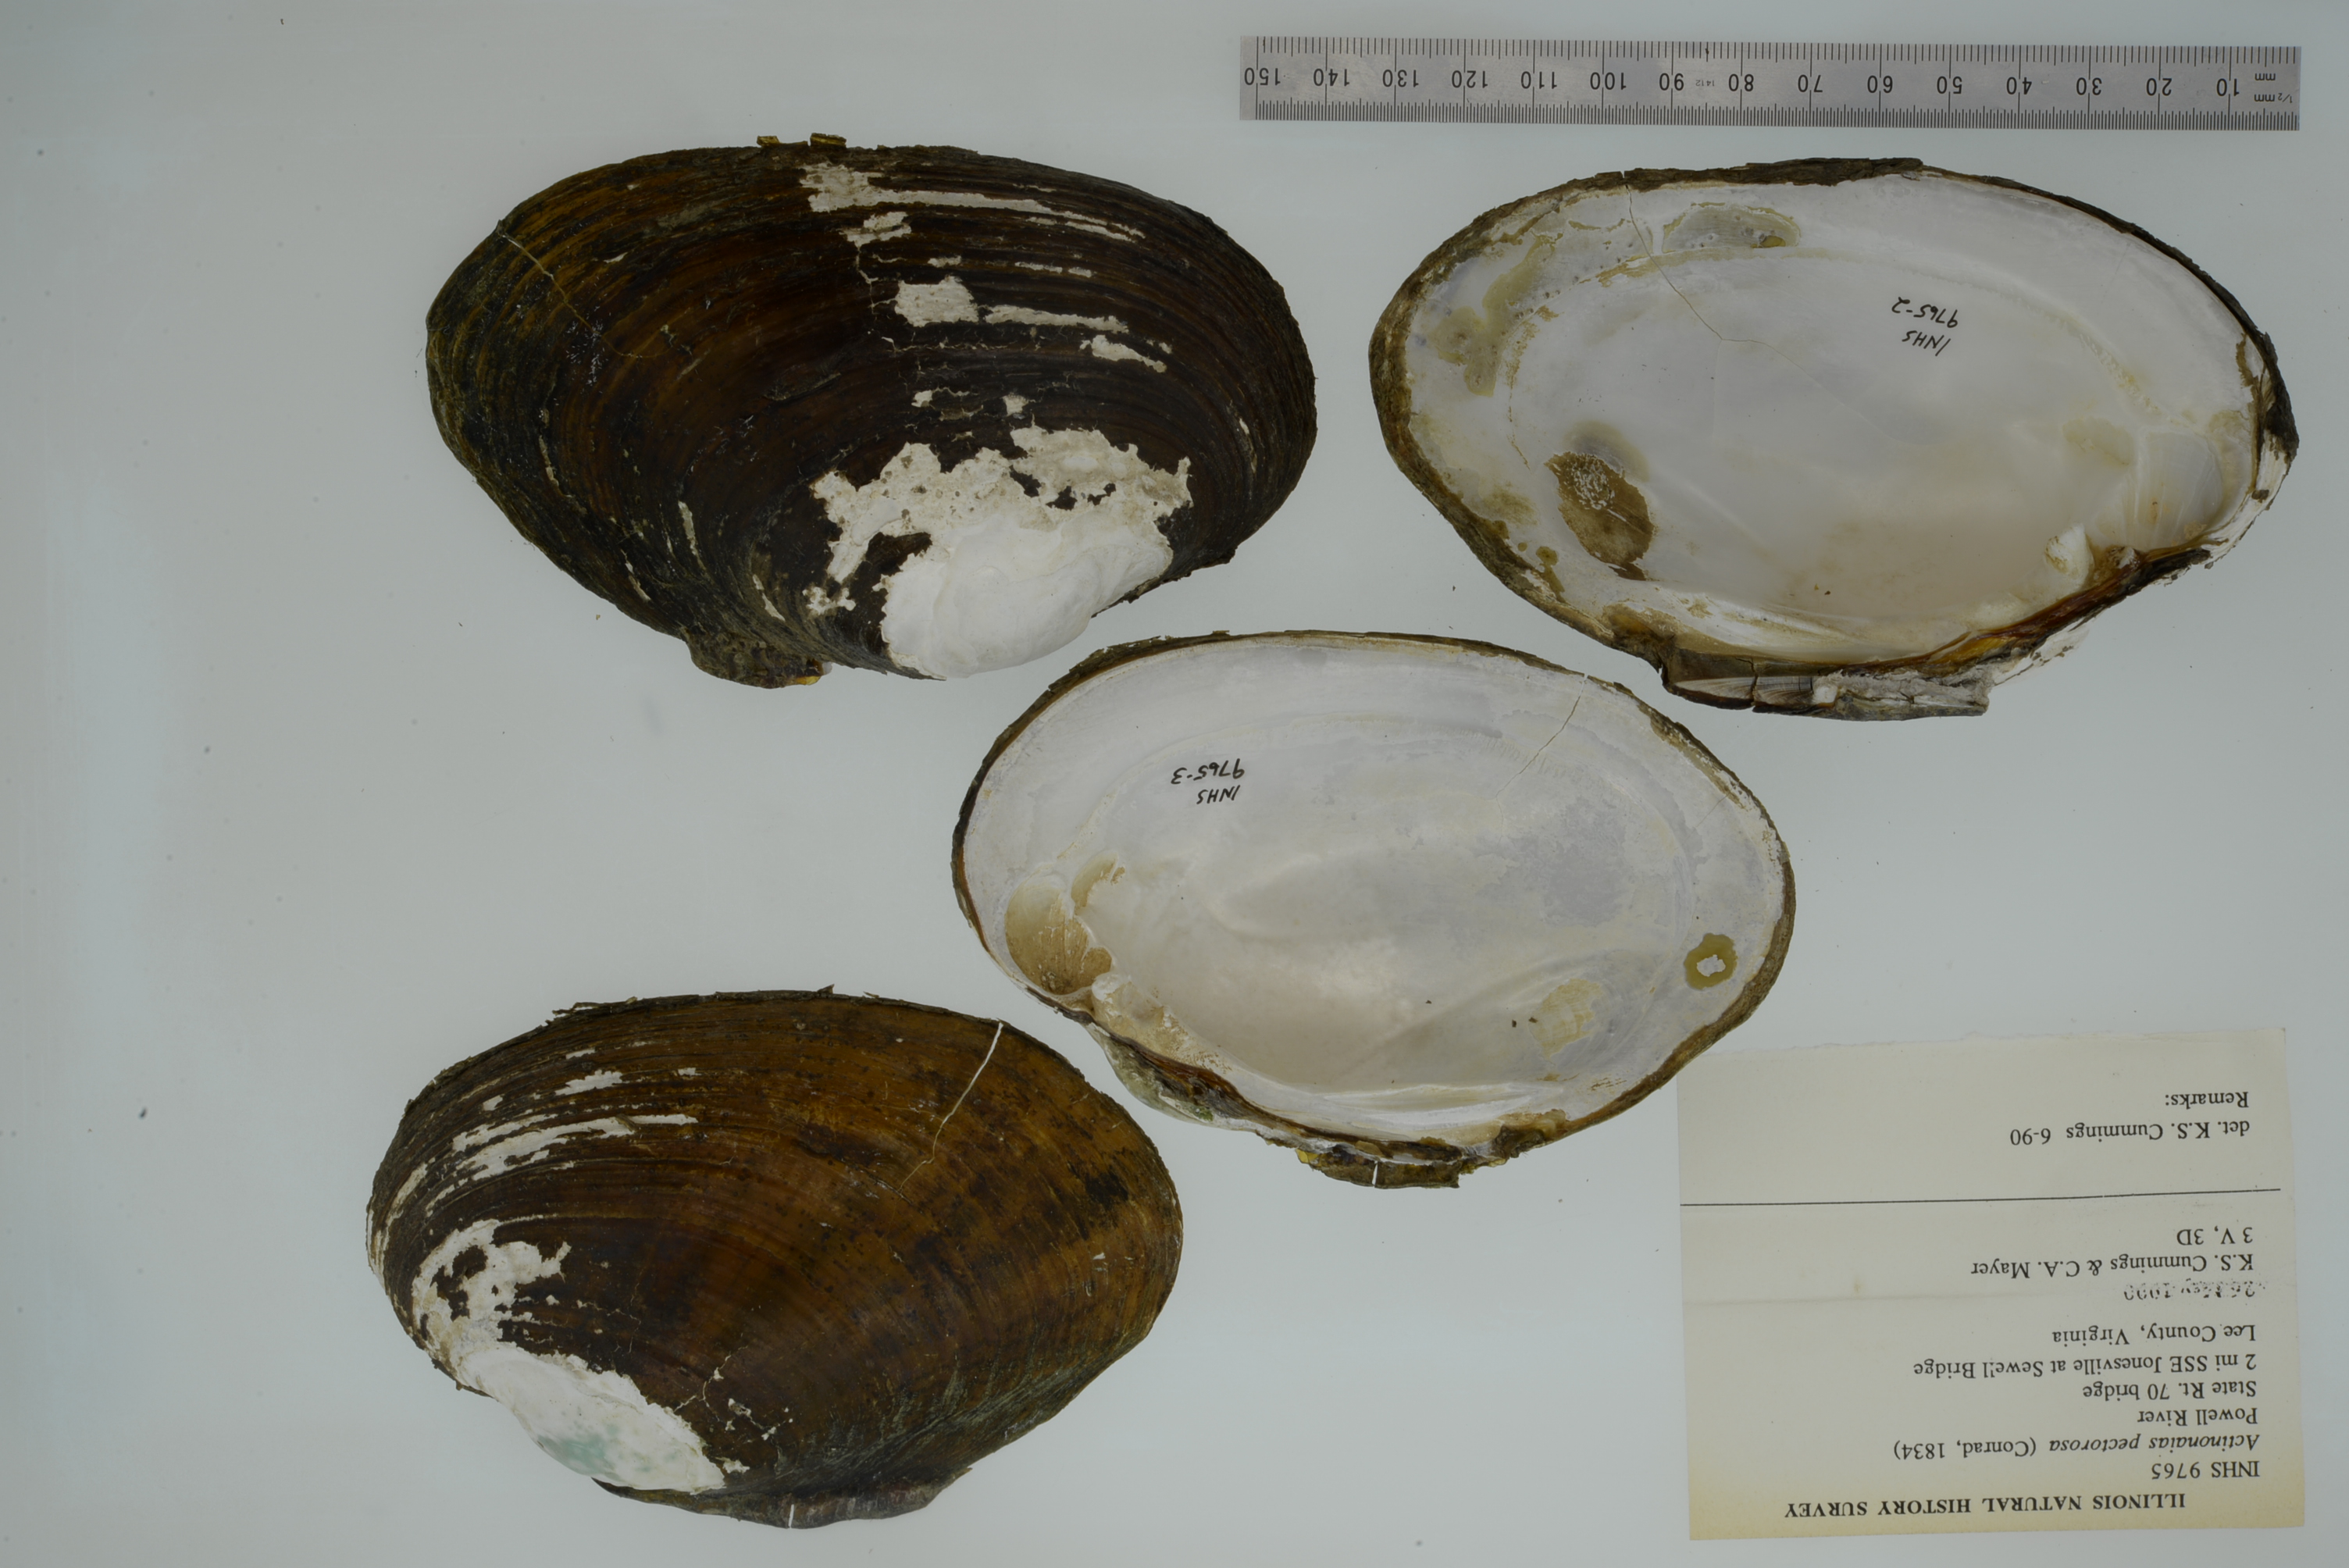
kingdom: Animalia
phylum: Mollusca
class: Bivalvia
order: Unionida
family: Unionidae
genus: Ortmanniana
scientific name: Ortmanniana pectorosa
